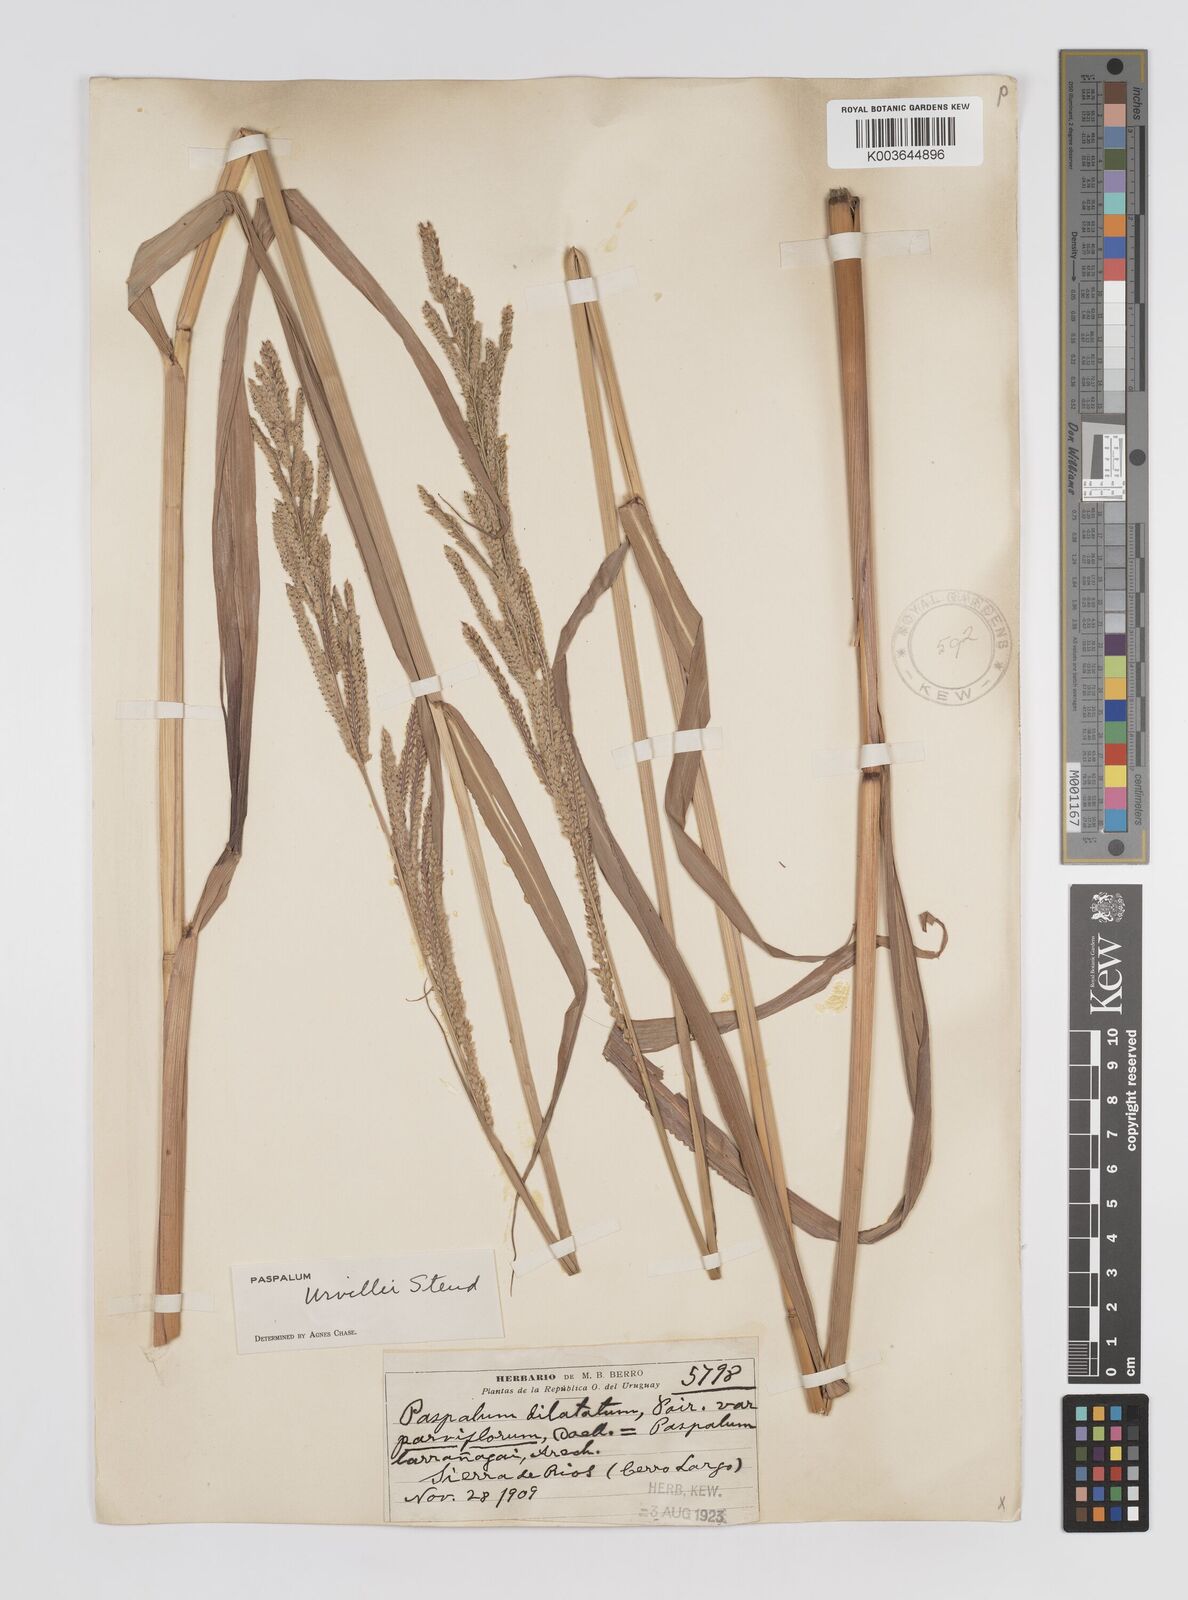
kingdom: Plantae
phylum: Tracheophyta
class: Liliopsida
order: Poales
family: Poaceae
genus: Paspalum
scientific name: Paspalum urvillei
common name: Vasey's grass
